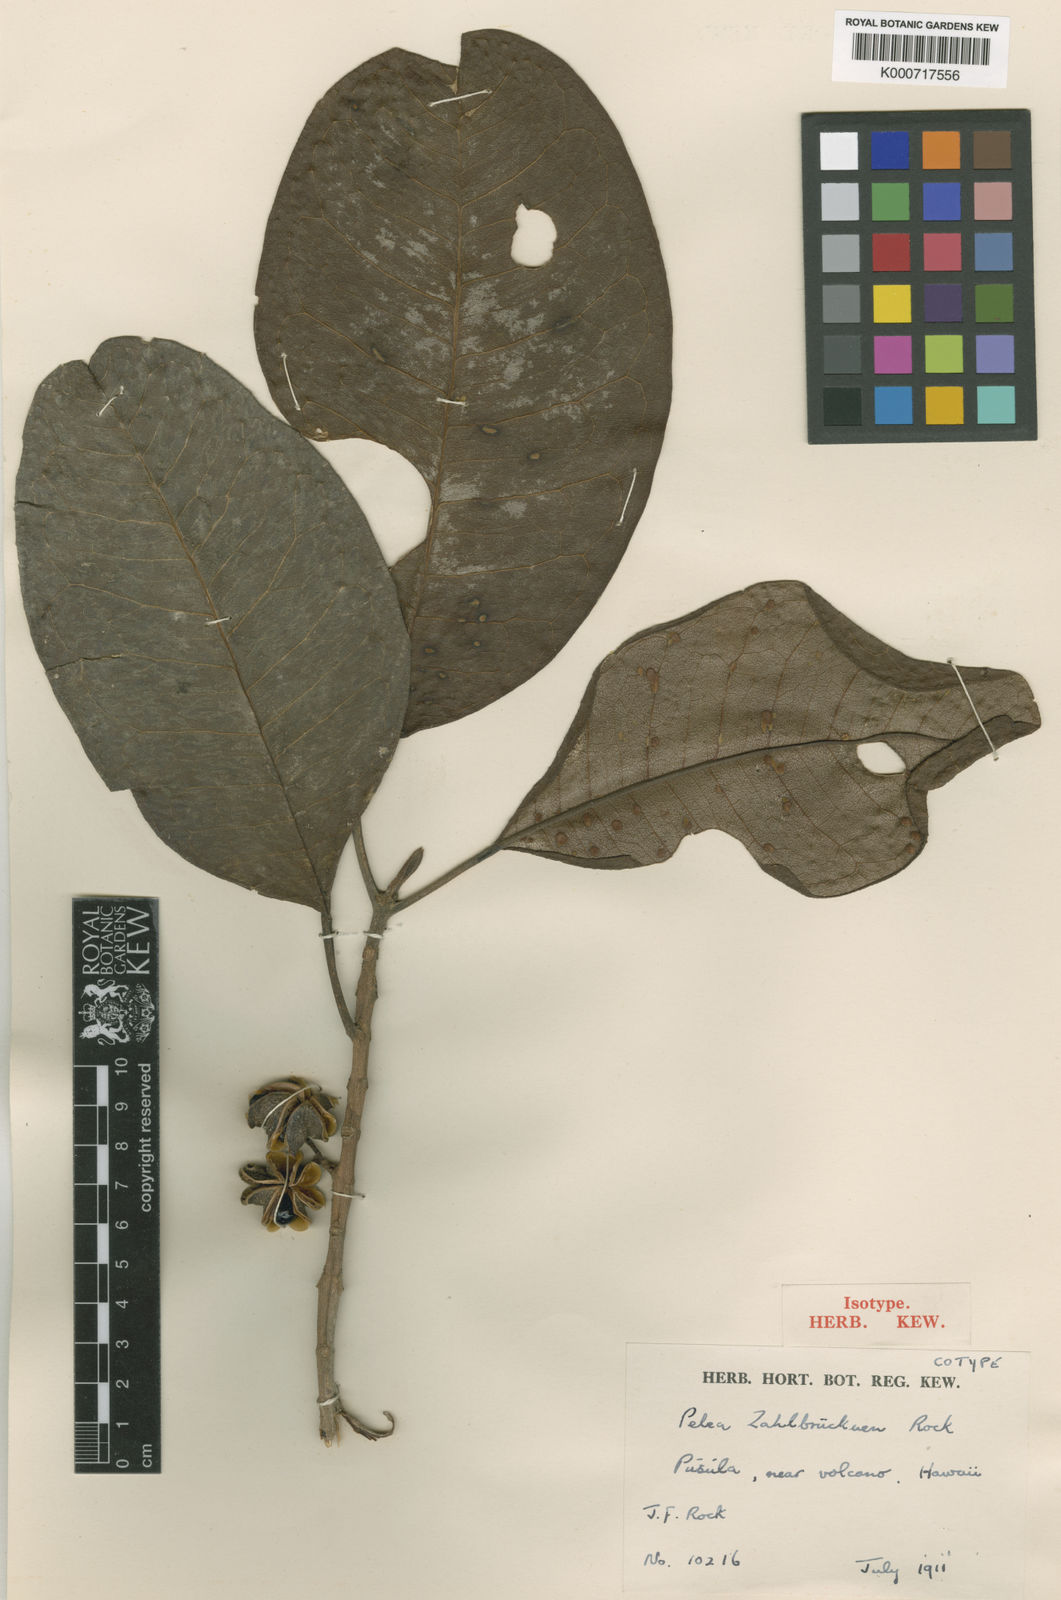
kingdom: Plantae
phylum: Tracheophyta
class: Magnoliopsida
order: Sapindales
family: Rutaceae
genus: Melicope
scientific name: Melicope zahlbruckneri
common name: Zahlbruckner's melicope
